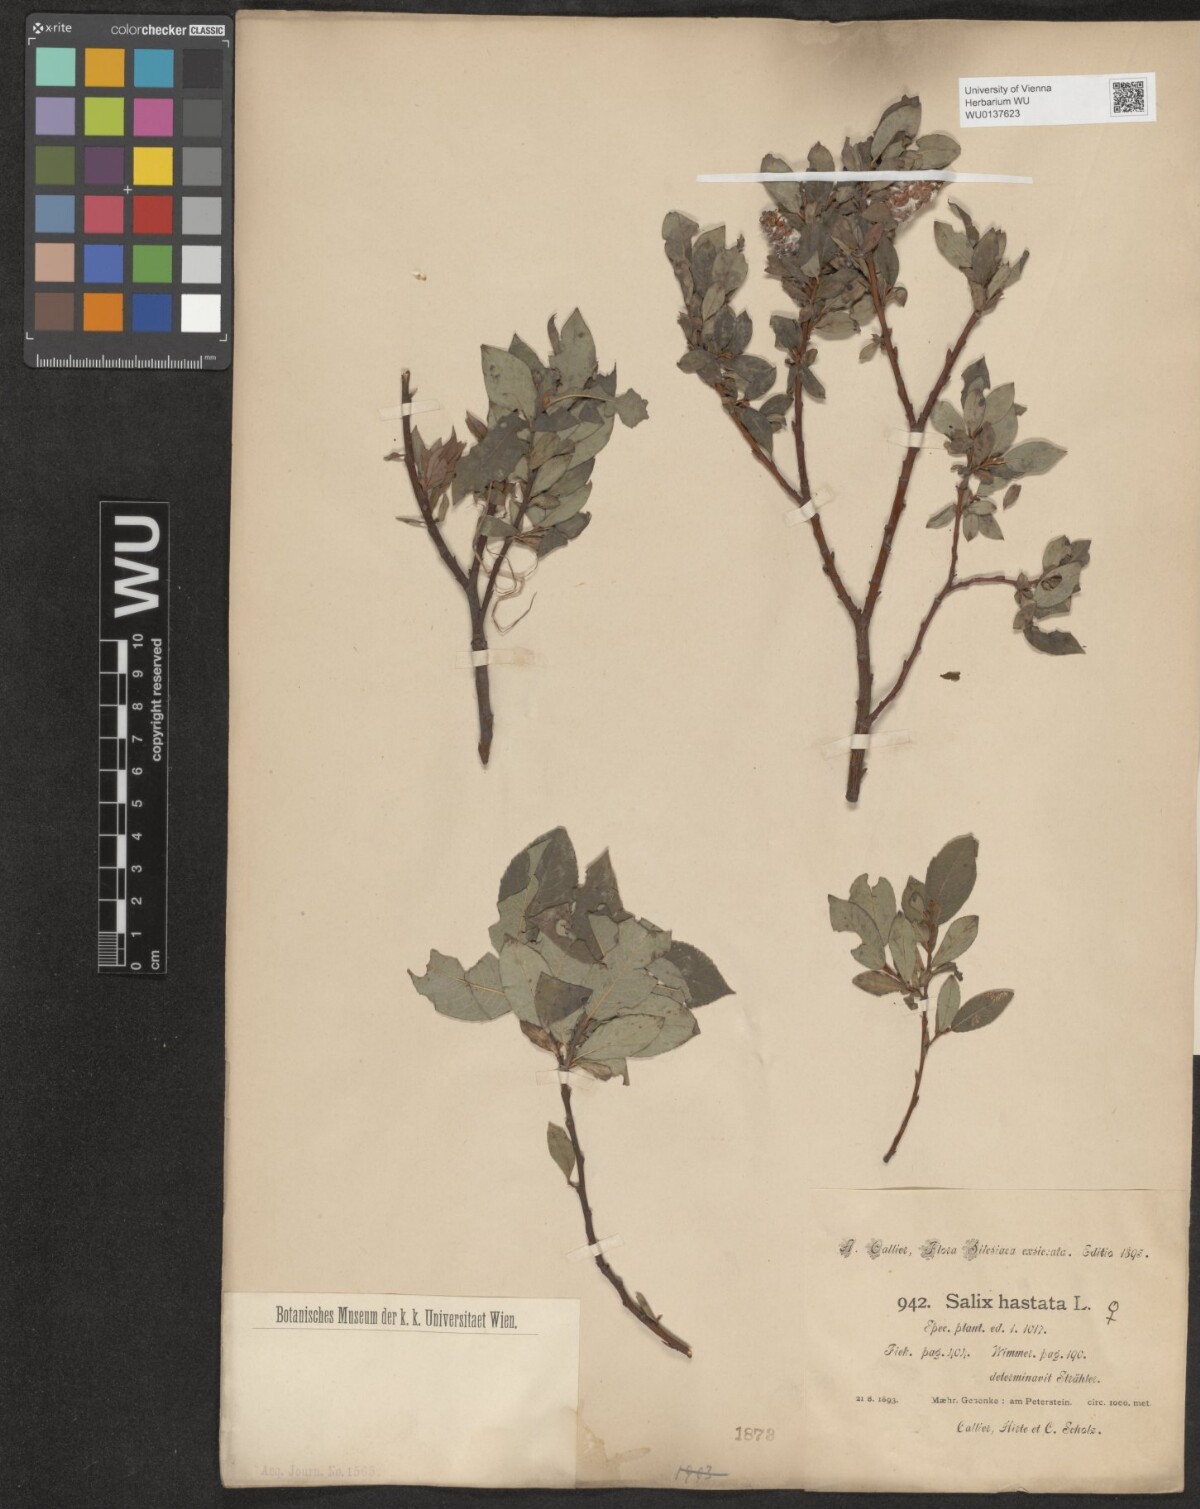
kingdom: Plantae
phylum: Tracheophyta
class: Magnoliopsida
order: Malpighiales
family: Salicaceae
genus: Salix
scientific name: Salix hastata
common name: Halberd willow
